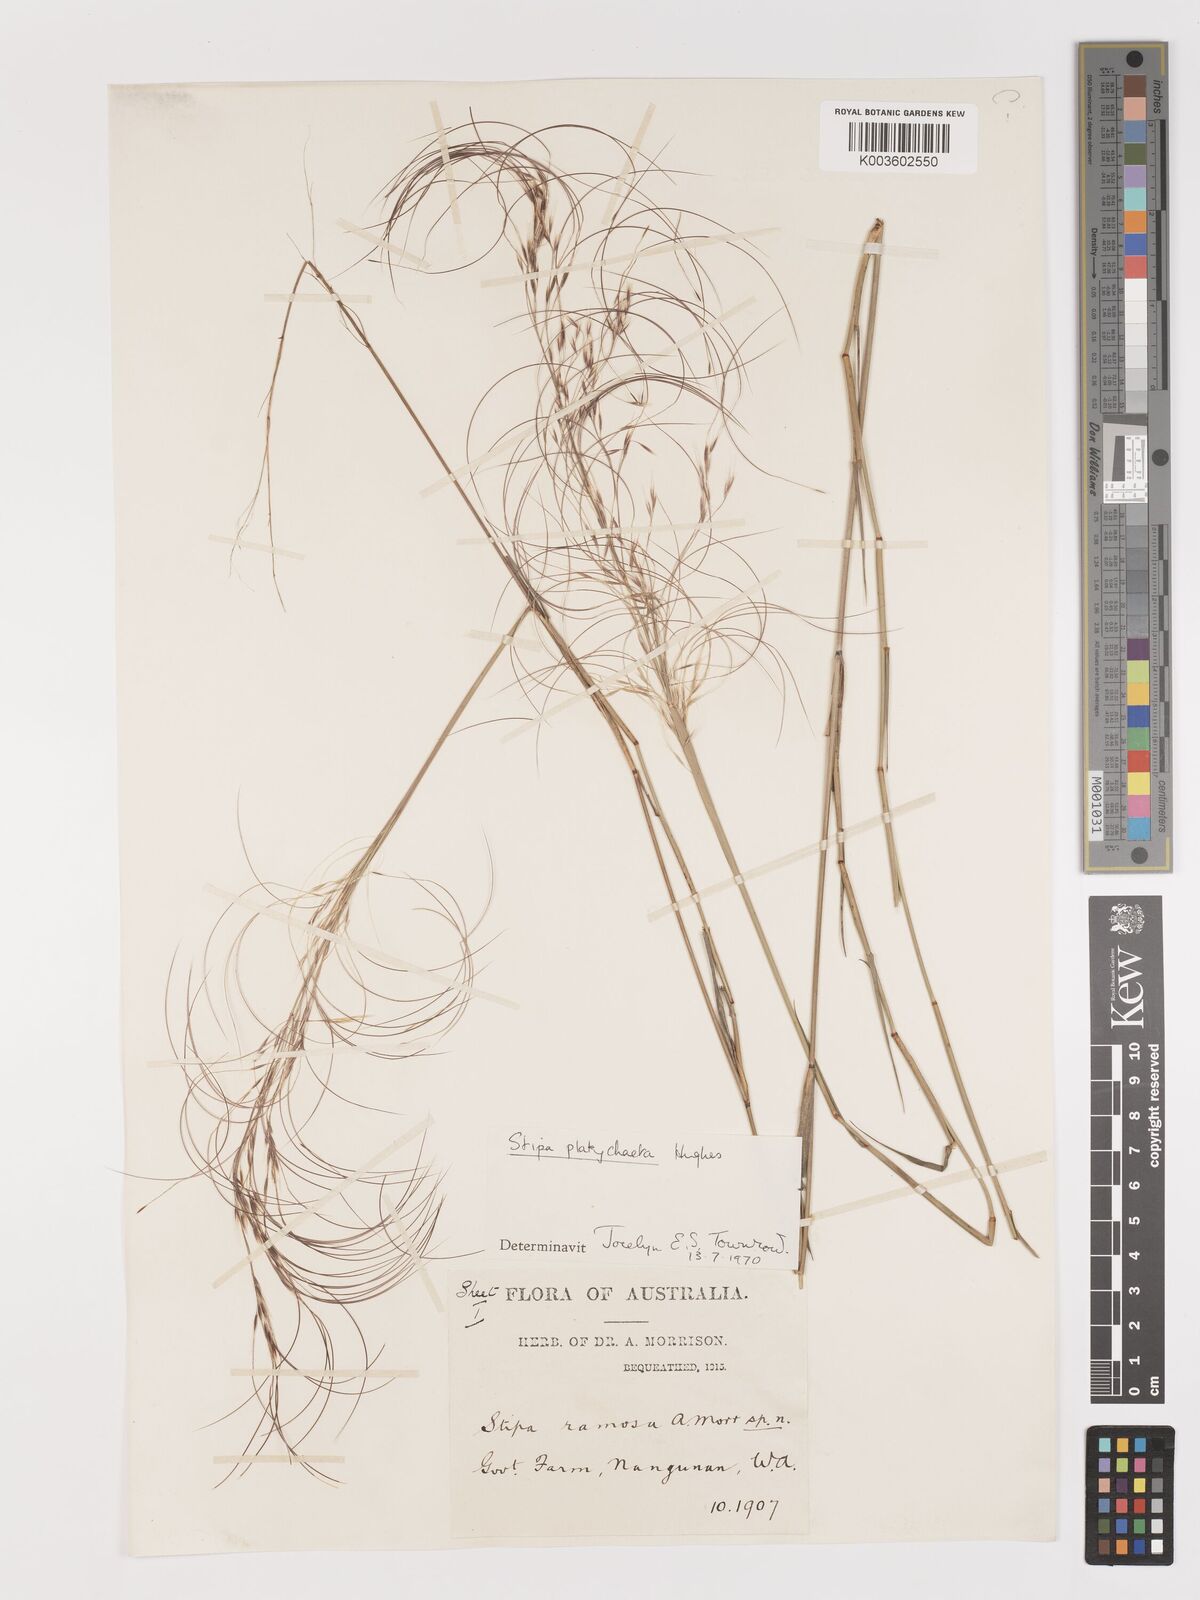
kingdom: Plantae
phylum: Tracheophyta
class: Liliopsida
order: Poales
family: Poaceae
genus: Austrostipa
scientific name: Austrostipa platychaeta
